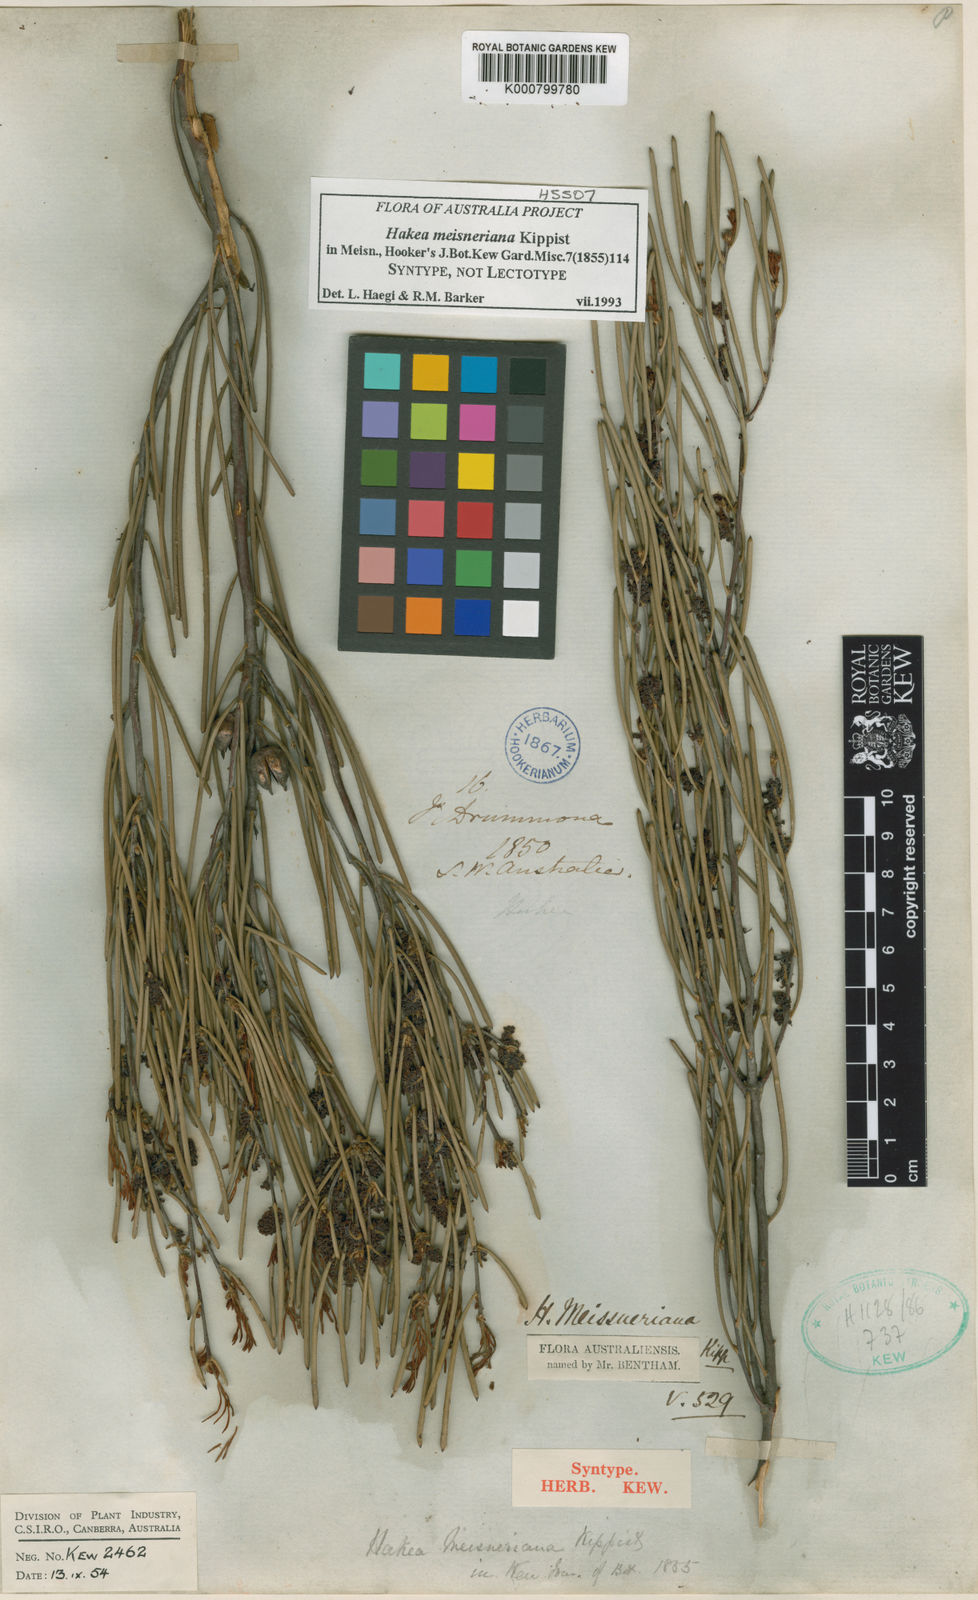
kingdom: Plantae
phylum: Tracheophyta
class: Magnoliopsida
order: Proteales
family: Proteaceae
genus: Hakea
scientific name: Hakea
